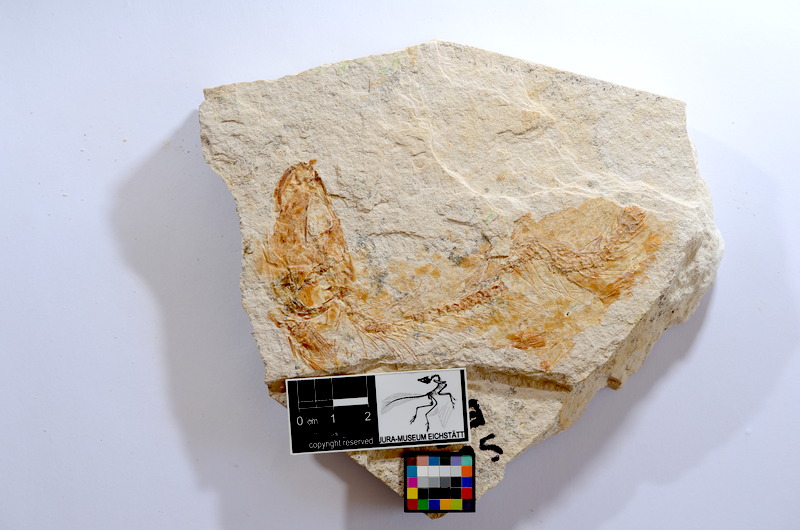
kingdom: Animalia
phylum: Chordata
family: Ascalaboidae
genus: Tharsis
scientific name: Tharsis dubius
